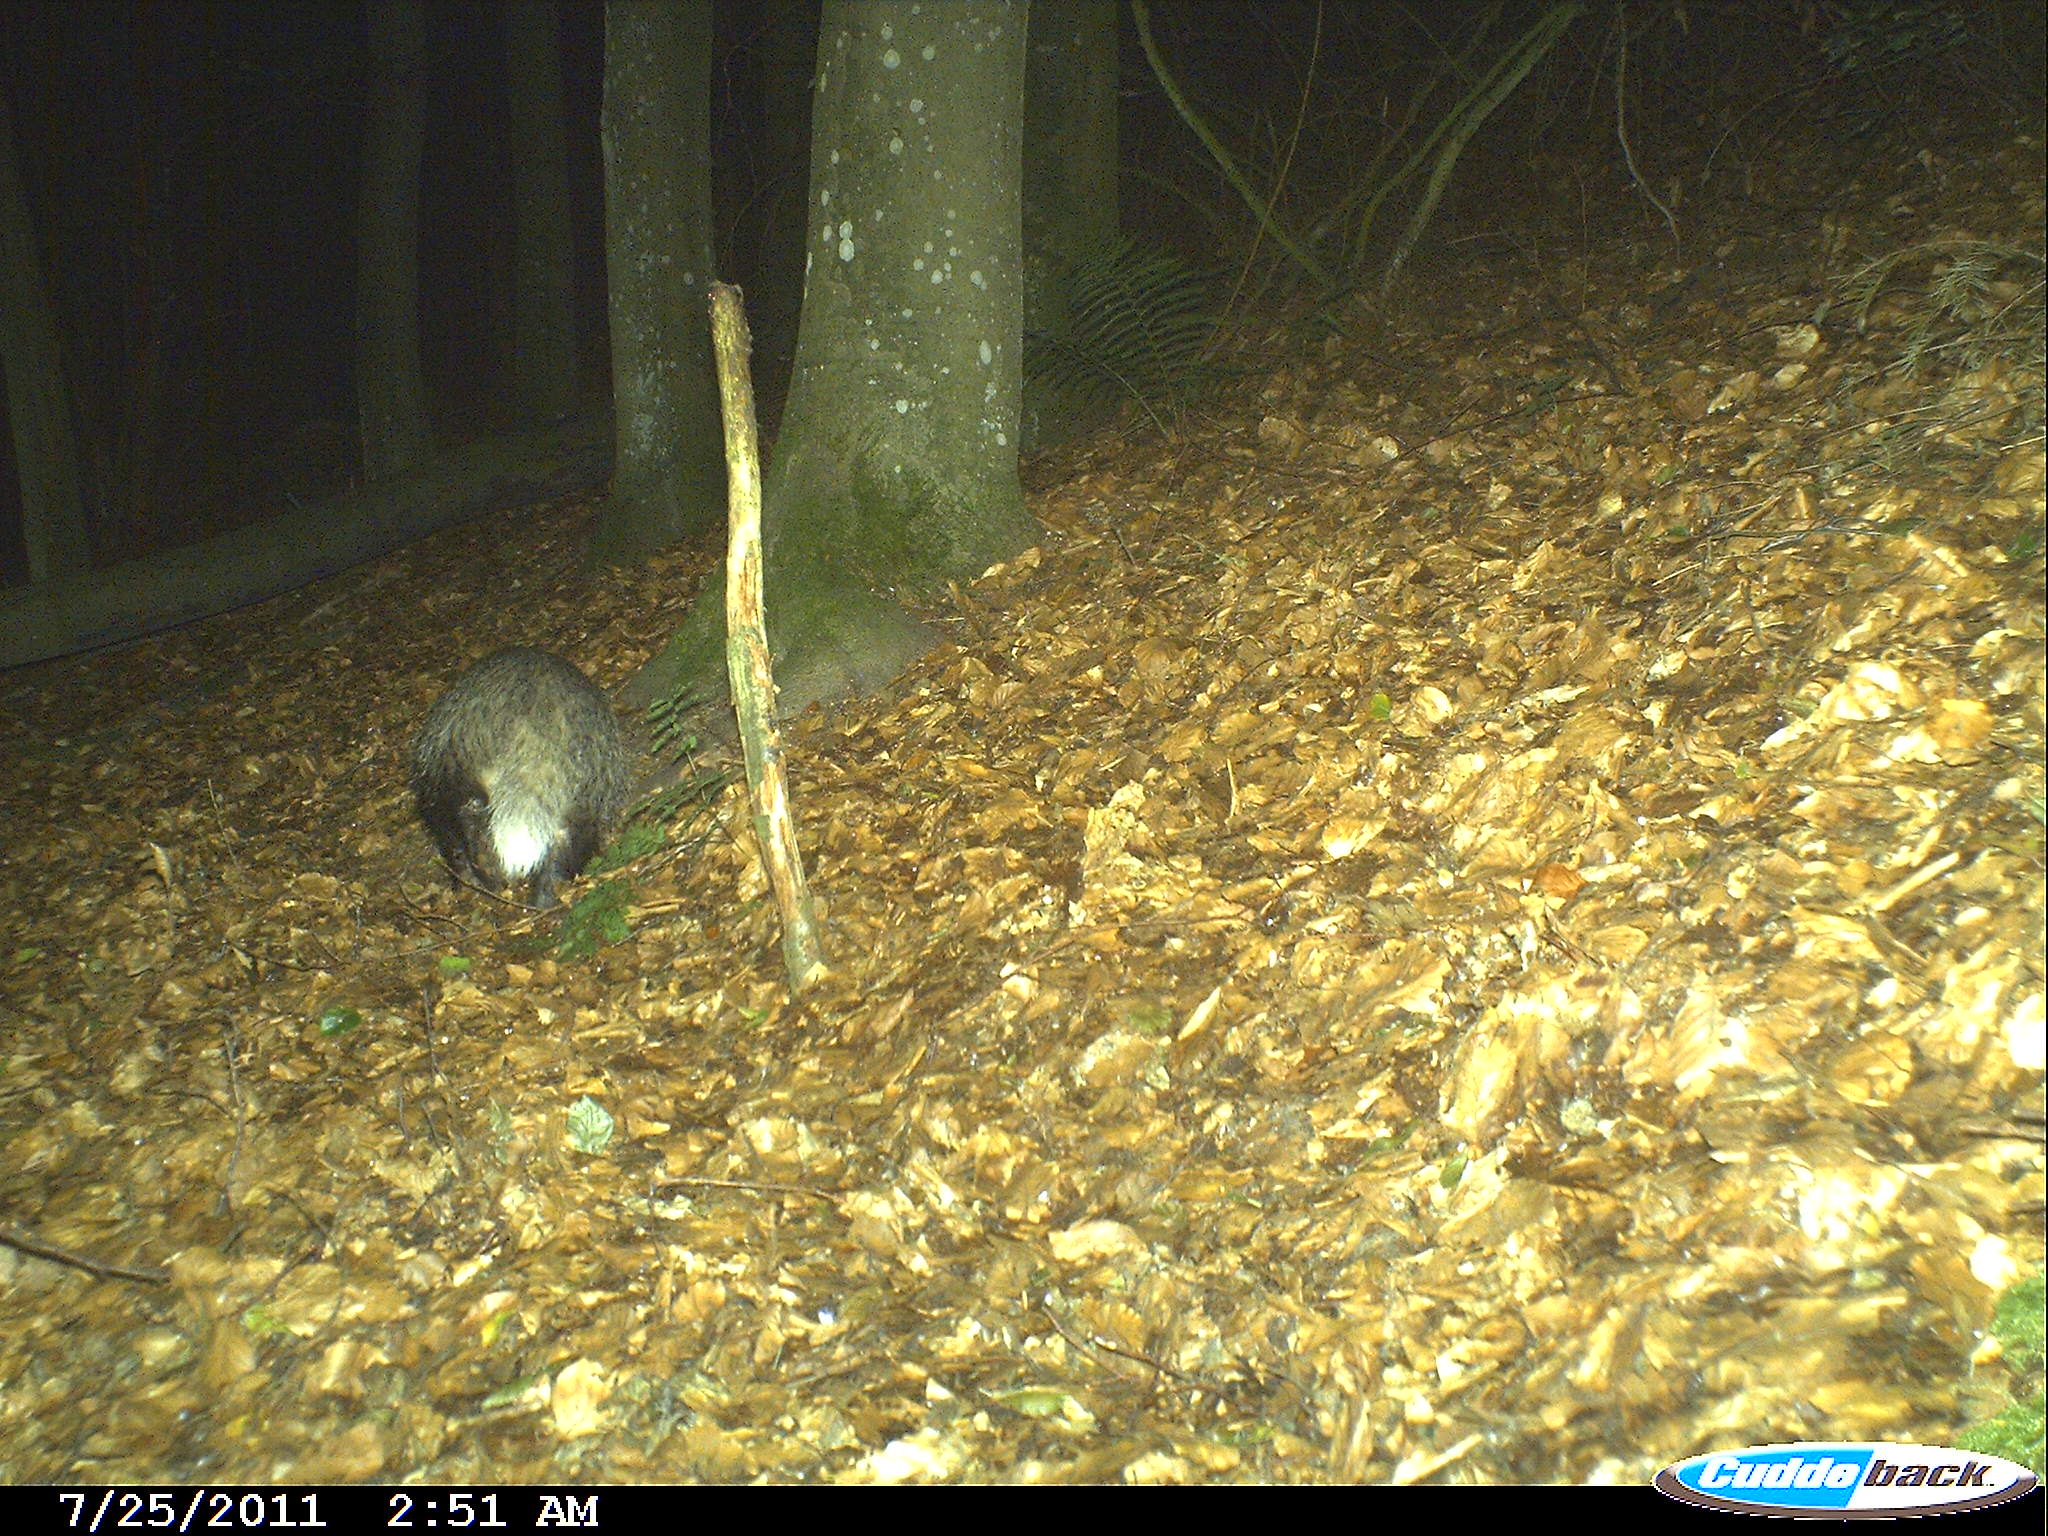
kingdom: Animalia
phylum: Chordata
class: Mammalia
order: Carnivora
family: Mustelidae
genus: Meles
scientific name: Meles meles
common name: Eurasian badger
